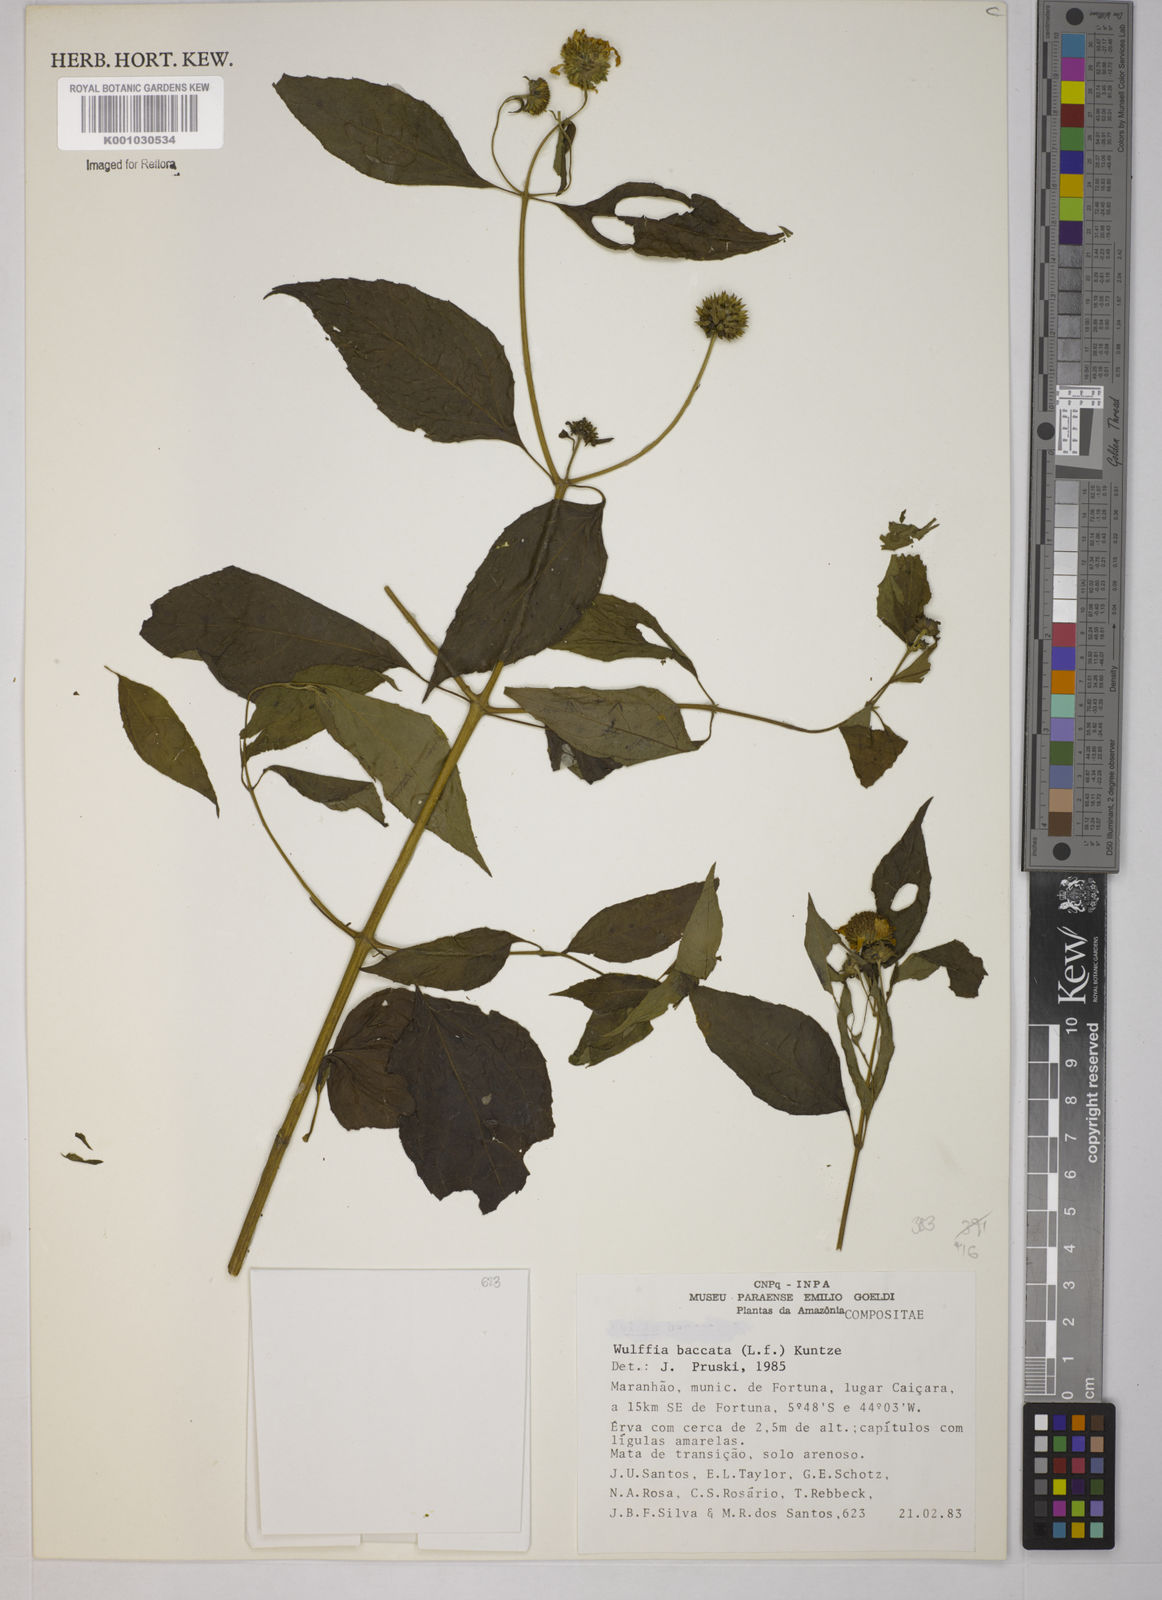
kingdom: Plantae
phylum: Tracheophyta
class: Magnoliopsida
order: Asterales
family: Asteraceae
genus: Tilesia
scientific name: Tilesia baccata
